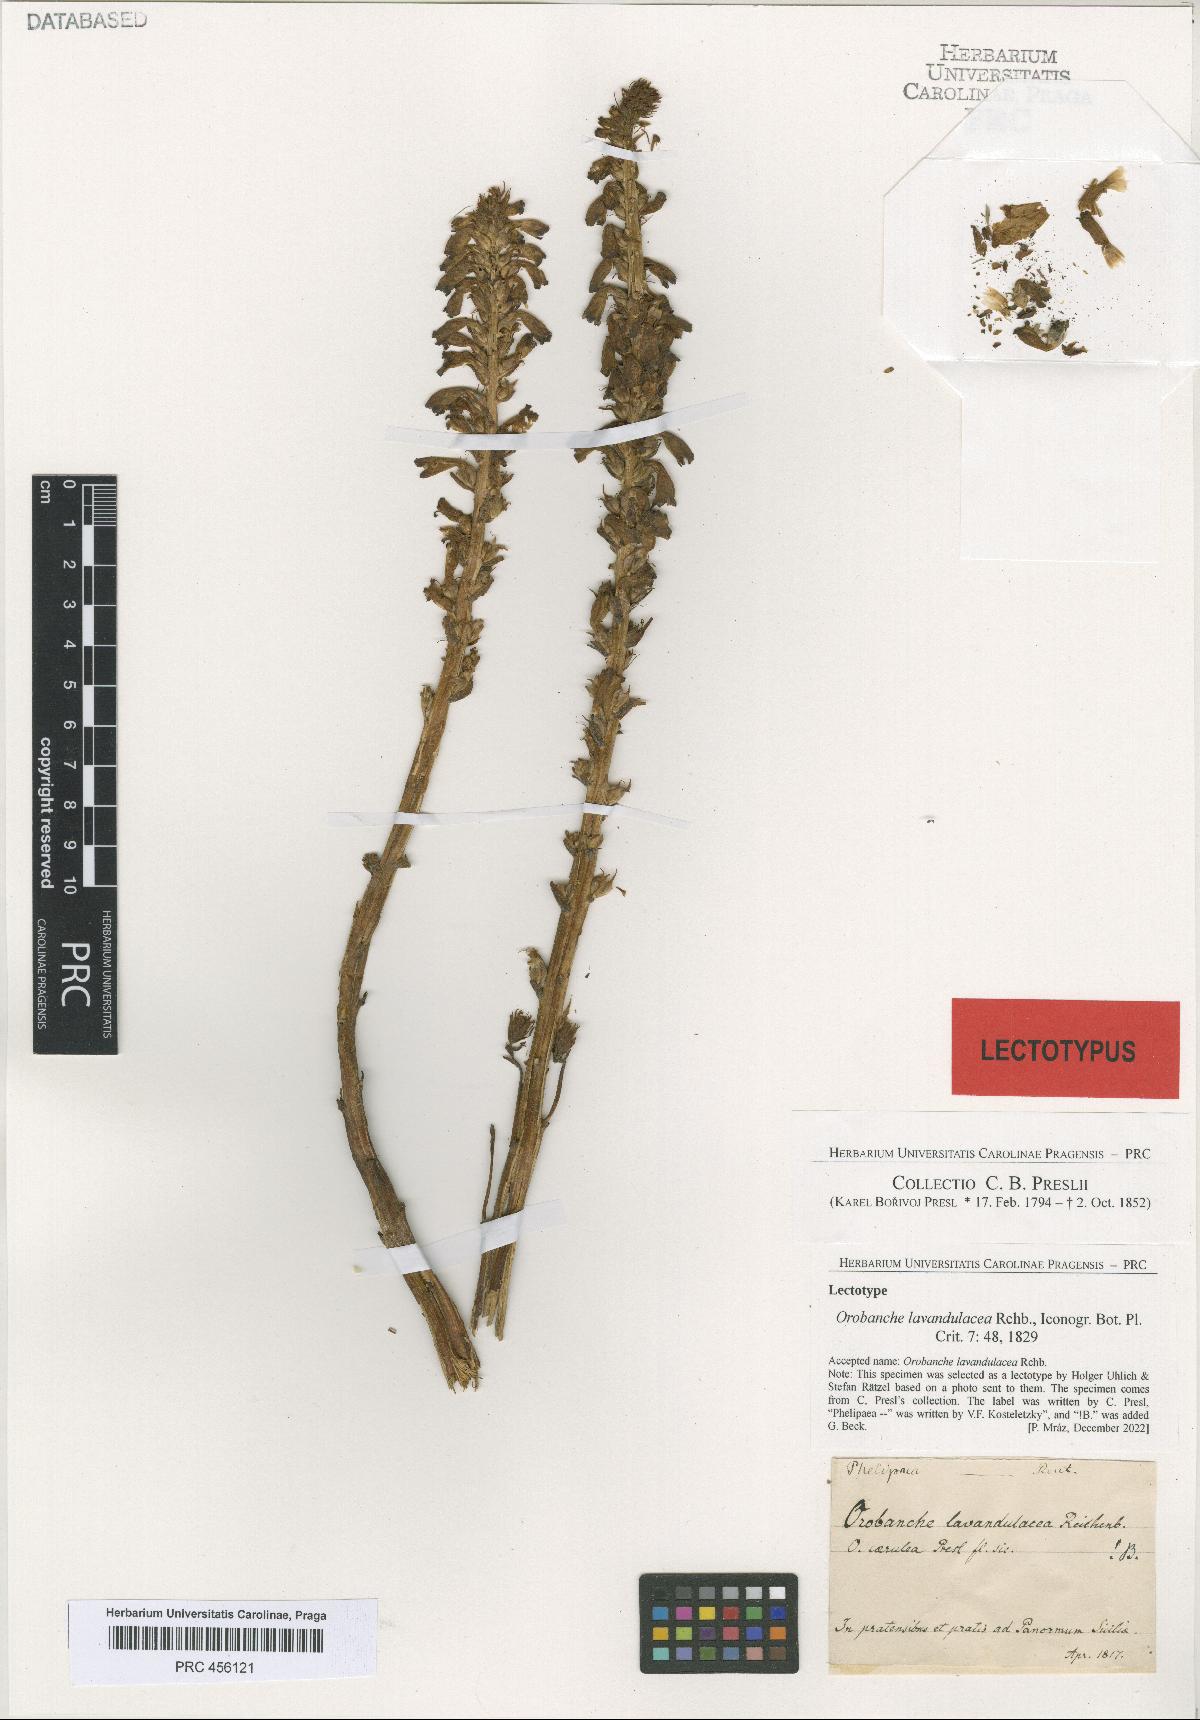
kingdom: Plantae
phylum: Tracheophyta
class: Magnoliopsida
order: Lamiales
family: Orobanchaceae
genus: Phelipanche
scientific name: Phelipanche lavandulacea
